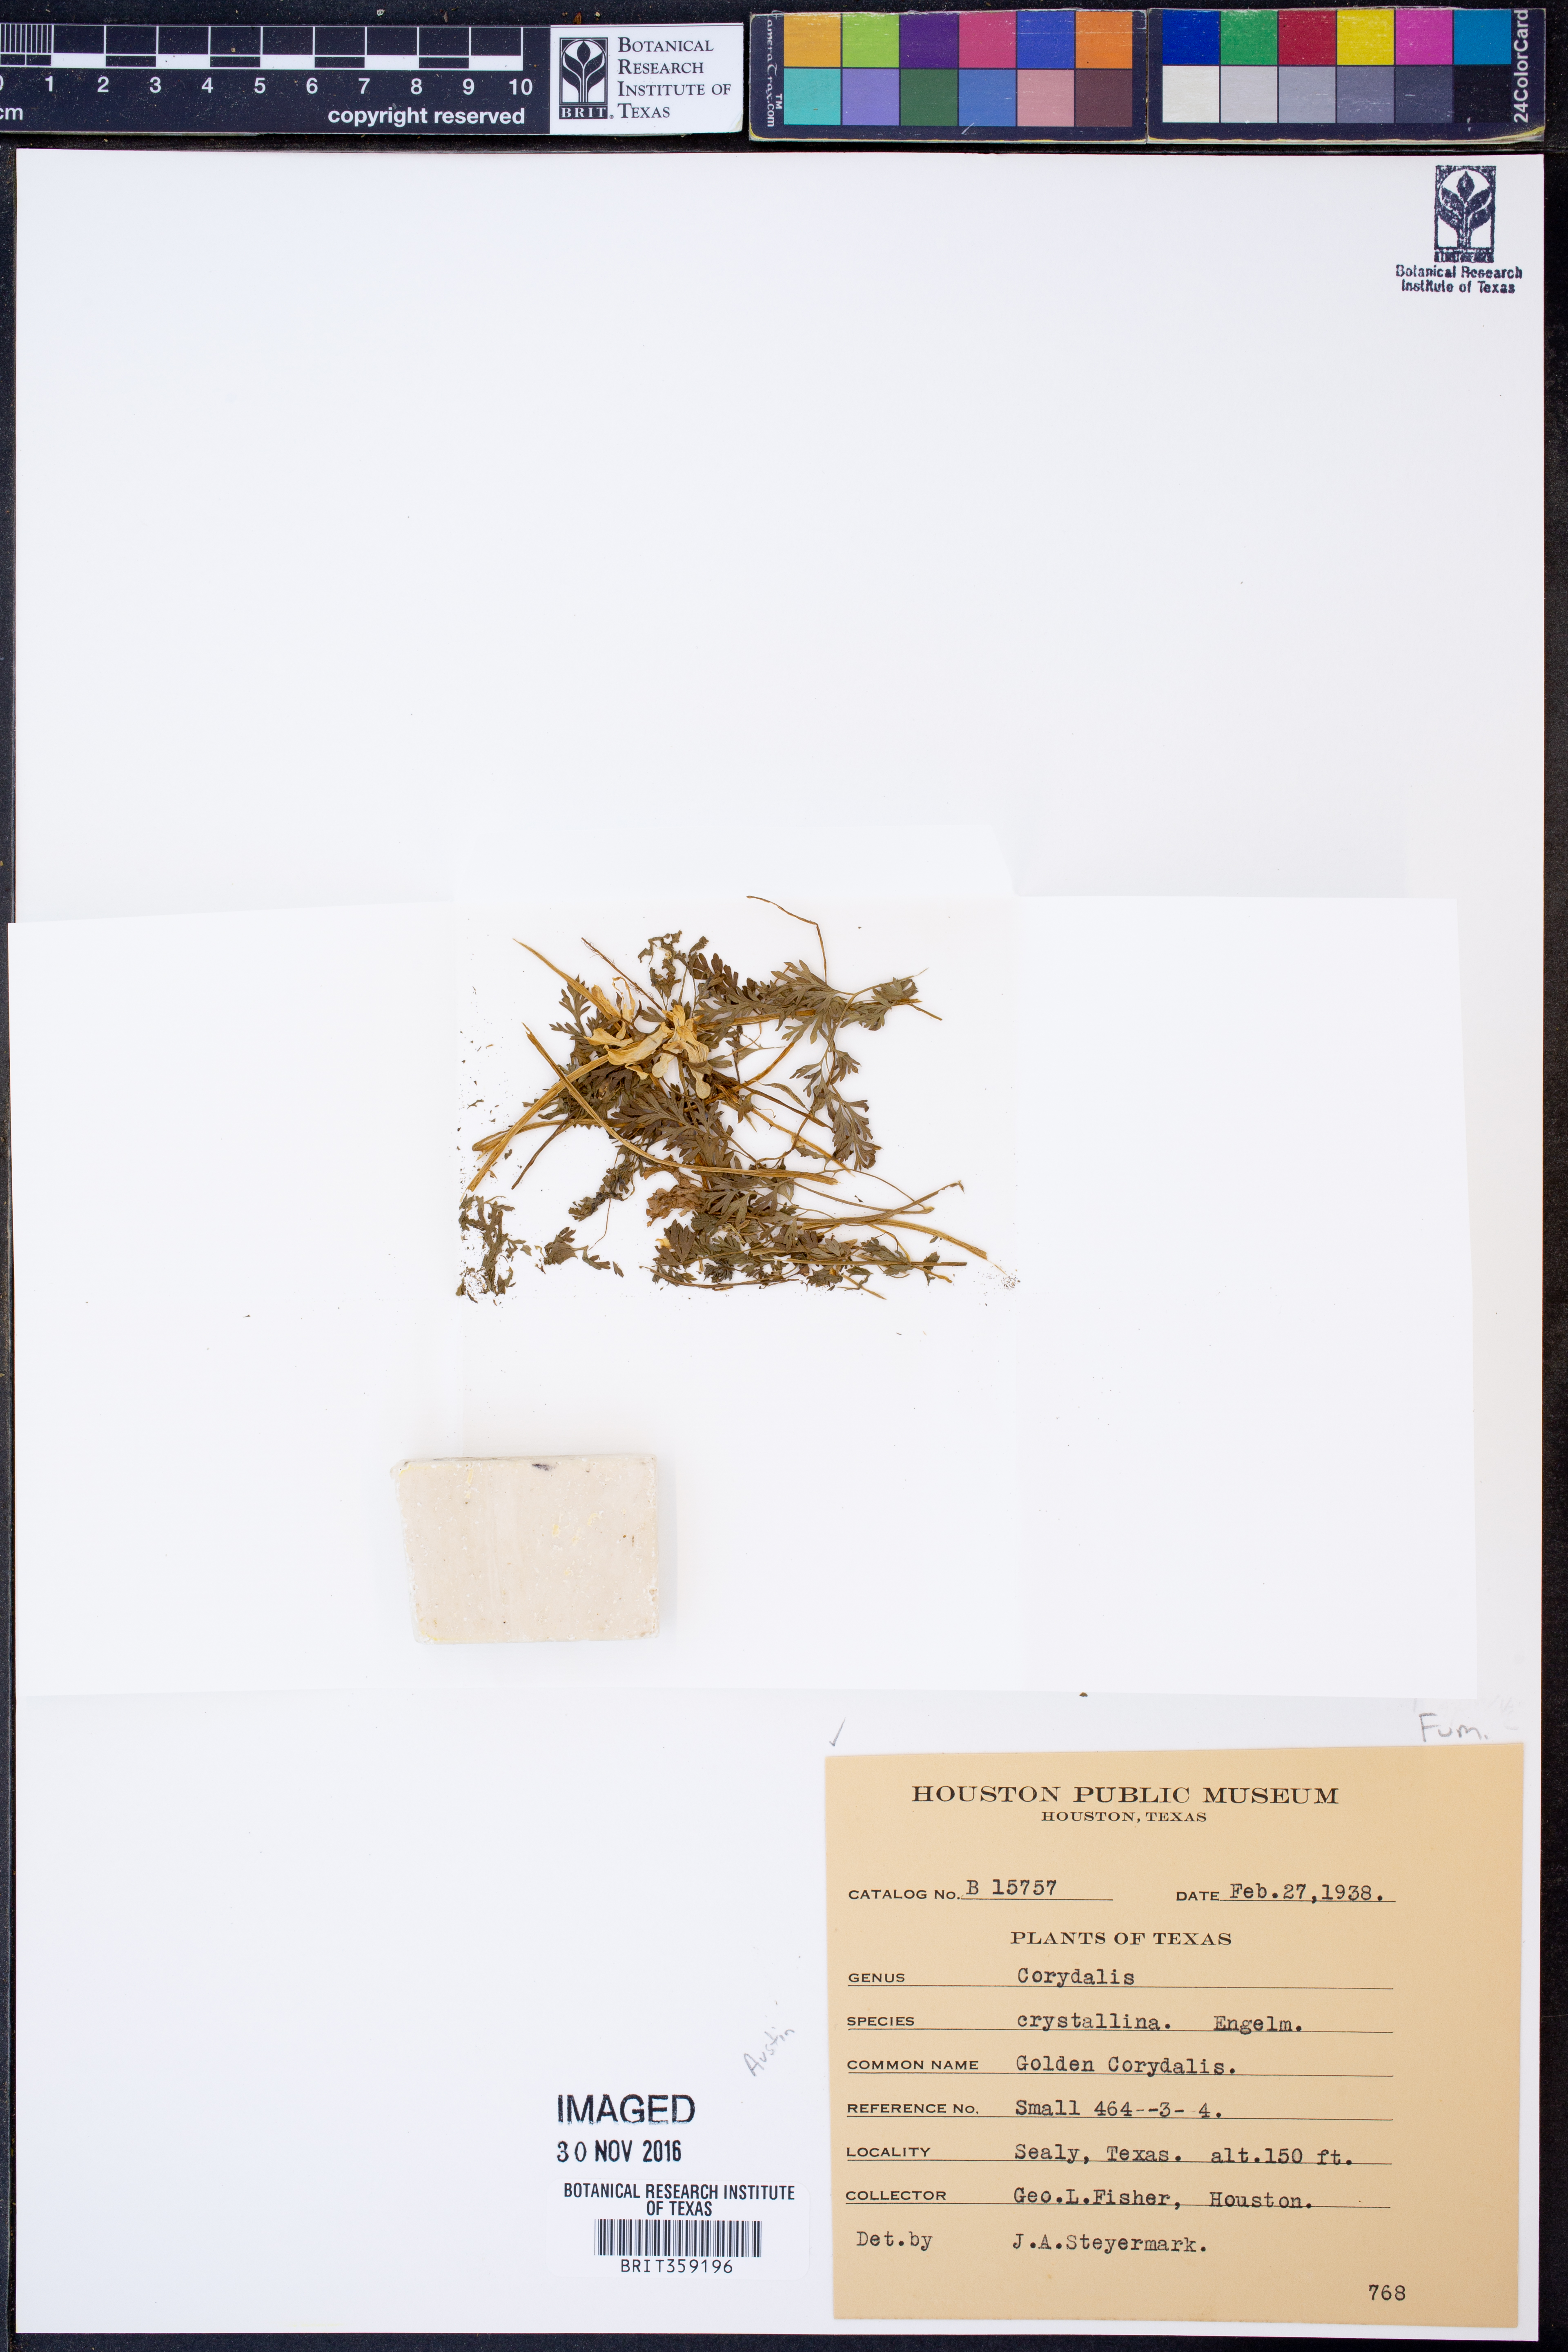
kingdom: Plantae
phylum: Tracheophyta
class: Magnoliopsida
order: Ranunculales
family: Papaveraceae
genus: Corydalis
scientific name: Corydalis crystallina
